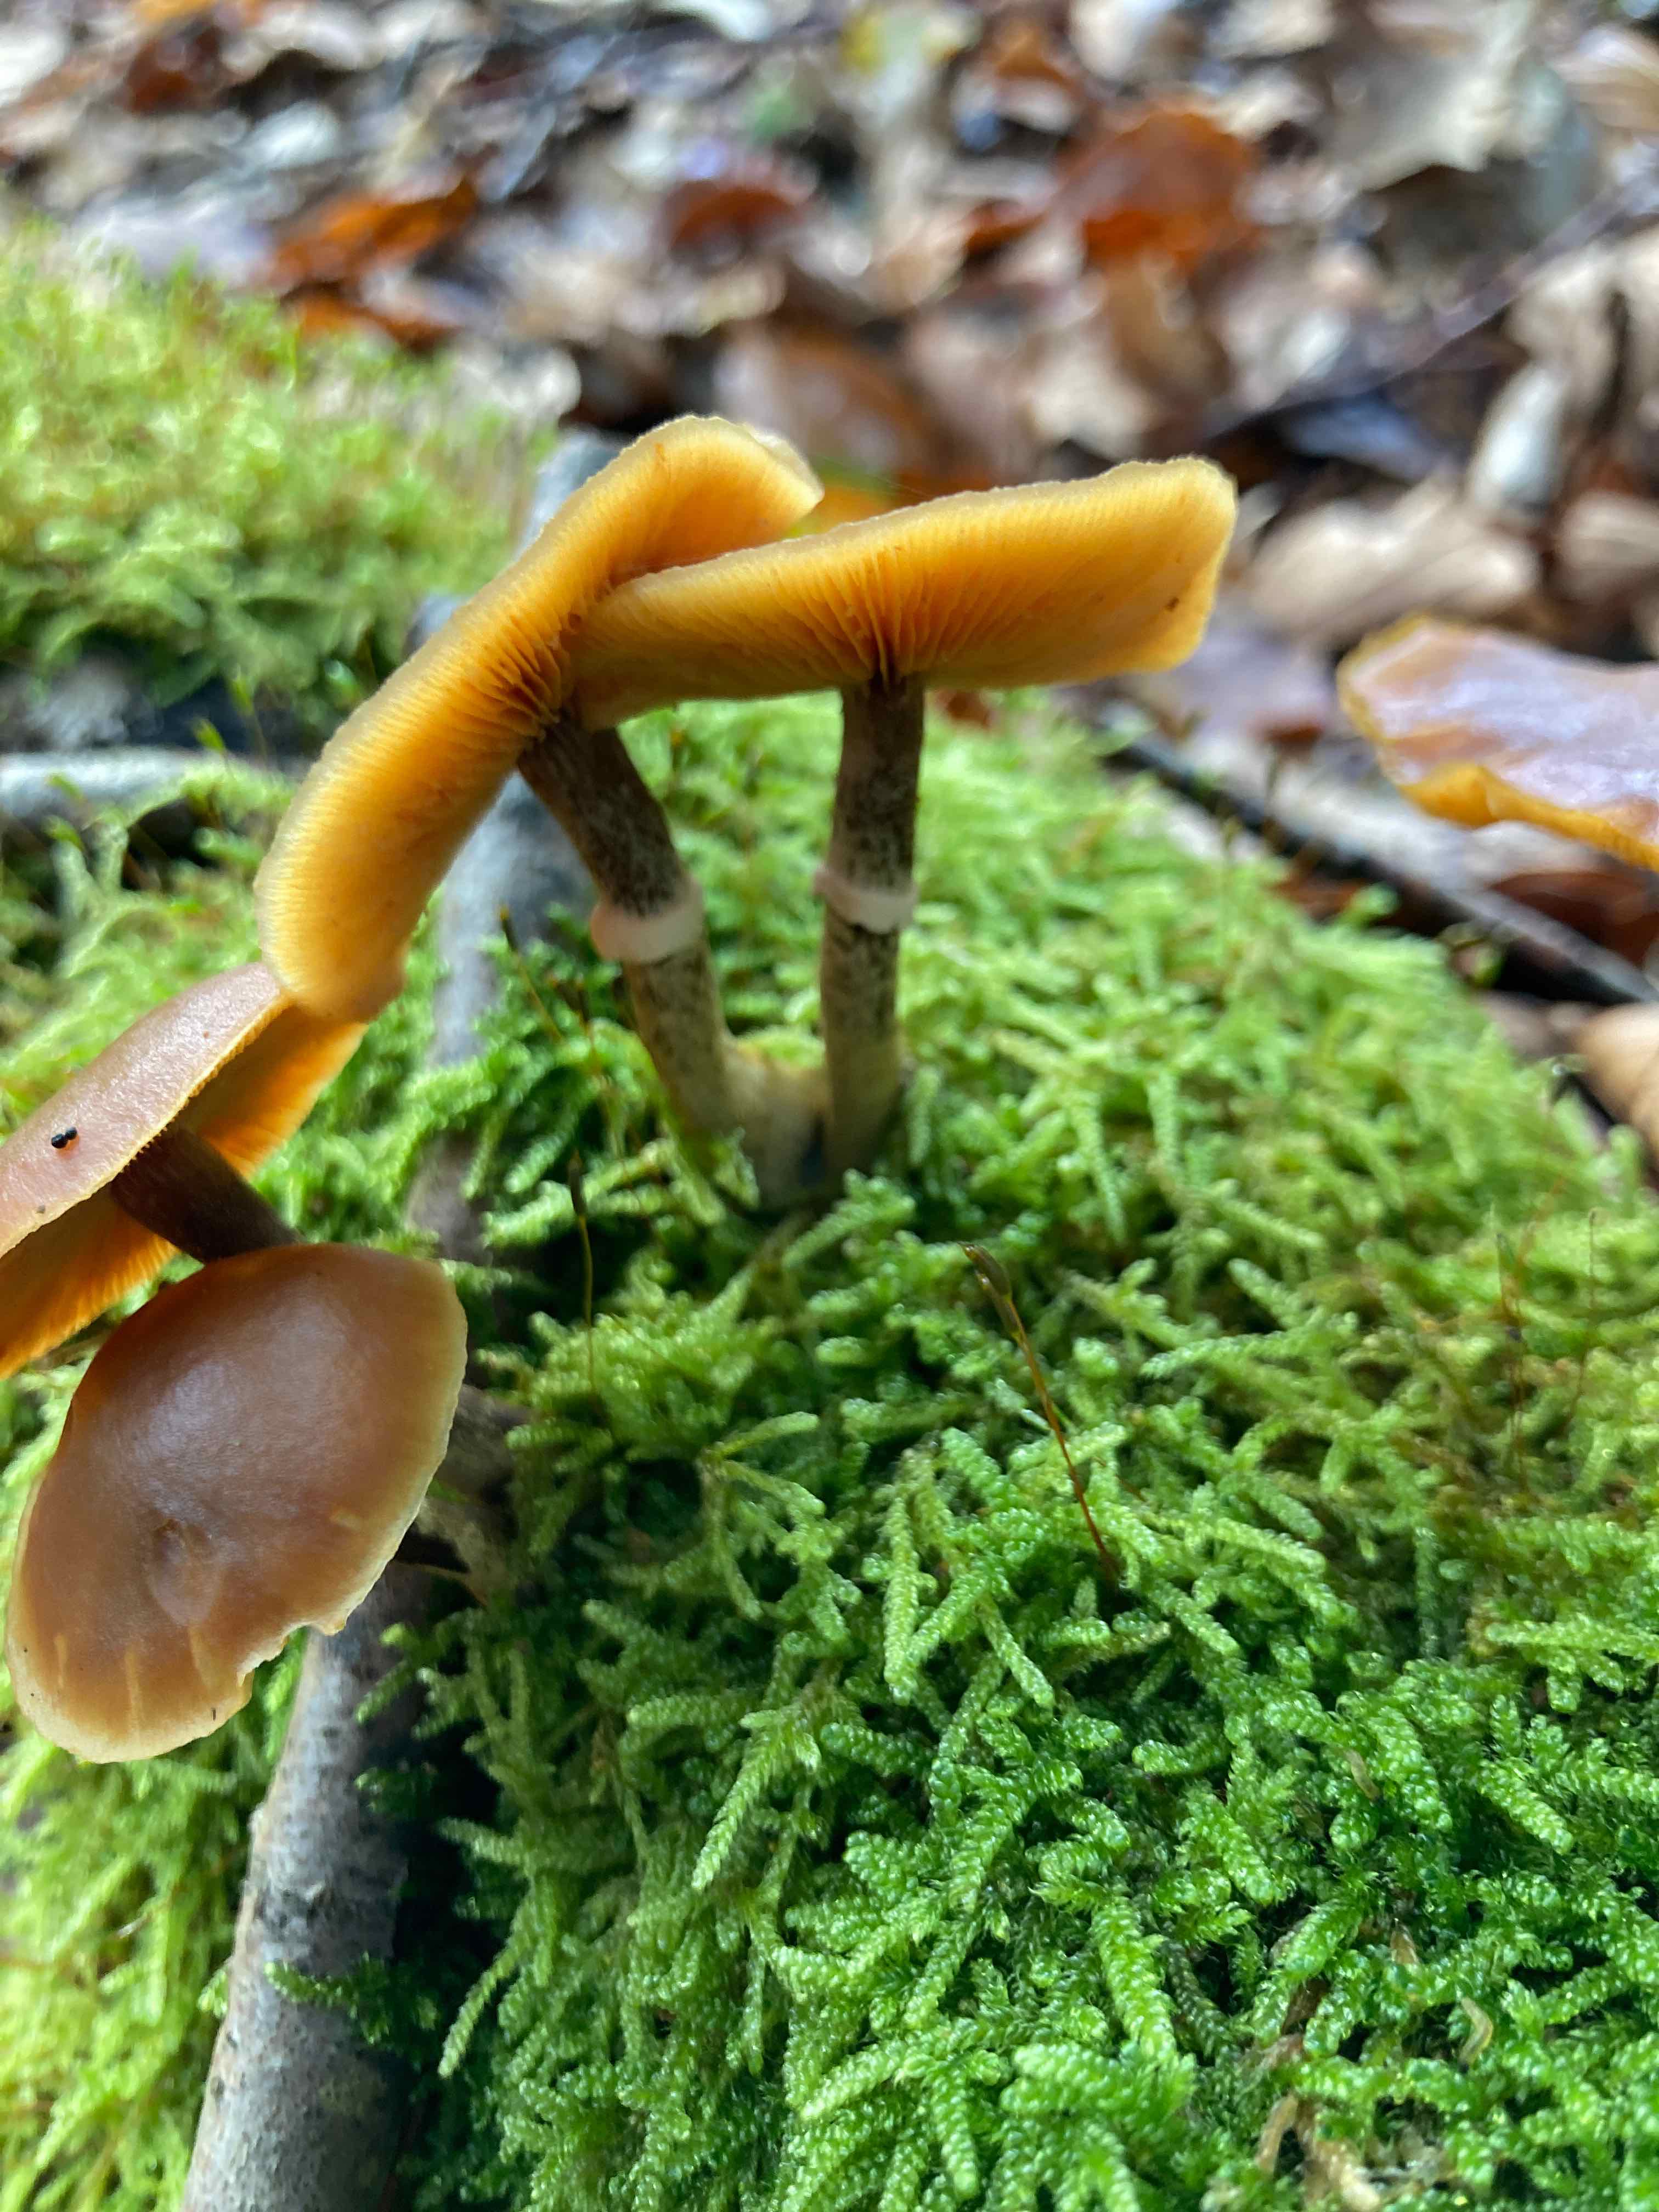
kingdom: Fungi
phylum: Basidiomycota
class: Agaricomycetes
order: Agaricales
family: Hymenogastraceae
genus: Galerina
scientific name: Galerina marginata
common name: randbæltet hjelmhat
